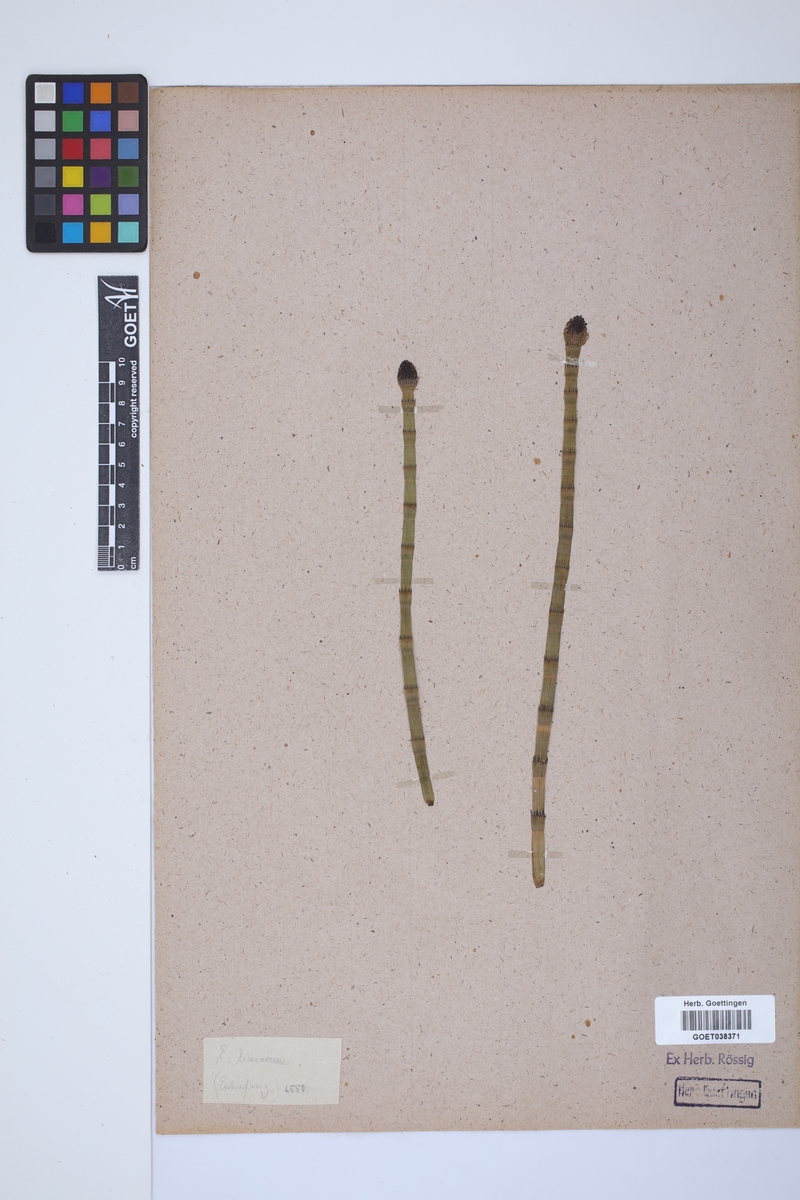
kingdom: Plantae
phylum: Tracheophyta
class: Polypodiopsida
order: Equisetales
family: Equisetaceae
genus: Equisetum
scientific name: Equisetum fluviatile
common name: Water horsetail
